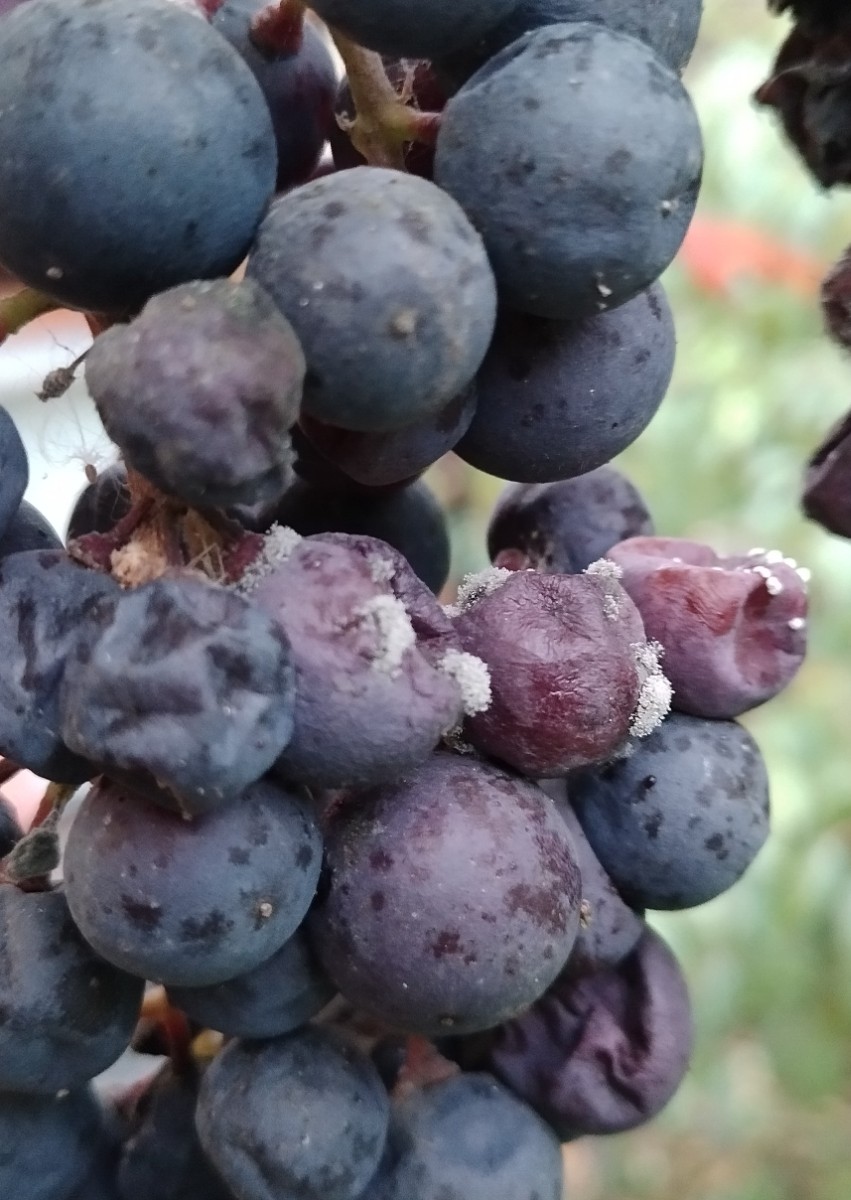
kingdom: Fungi
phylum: Ascomycota
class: Leotiomycetes
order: Helotiales
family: Sclerotiniaceae
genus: Botrytis
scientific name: Botrytis cinerea
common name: Grey mould
